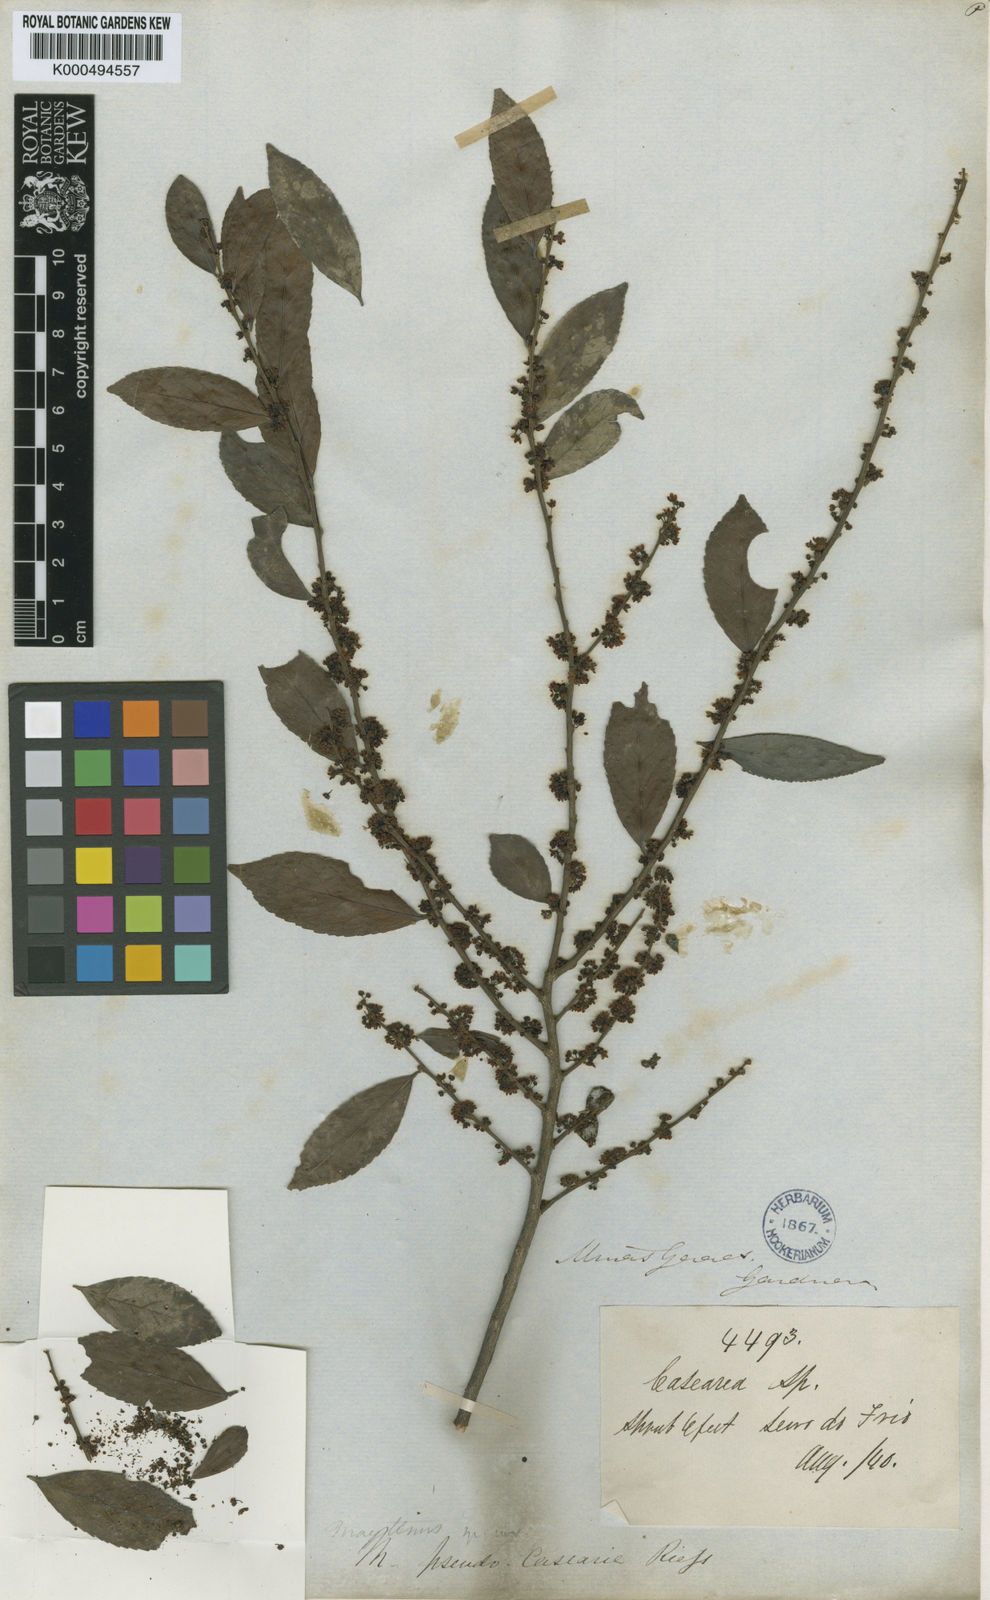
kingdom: Plantae
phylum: Tracheophyta
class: Magnoliopsida
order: Celastrales
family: Celastraceae
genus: Monteverdia
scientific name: Monteverdia evonymoides
